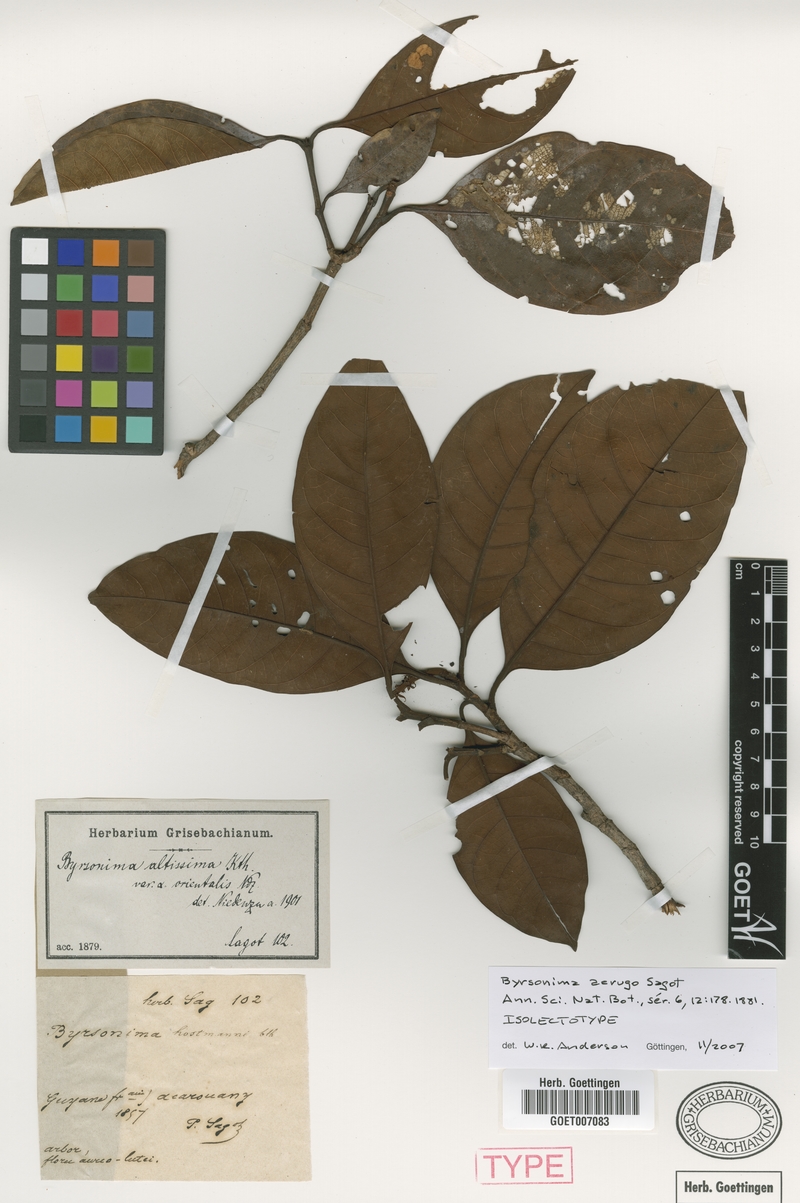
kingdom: Plantae
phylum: Tracheophyta
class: Magnoliopsida
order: Malpighiales
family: Malpighiaceae
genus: Byrsonima
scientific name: Byrsonima aerugo
